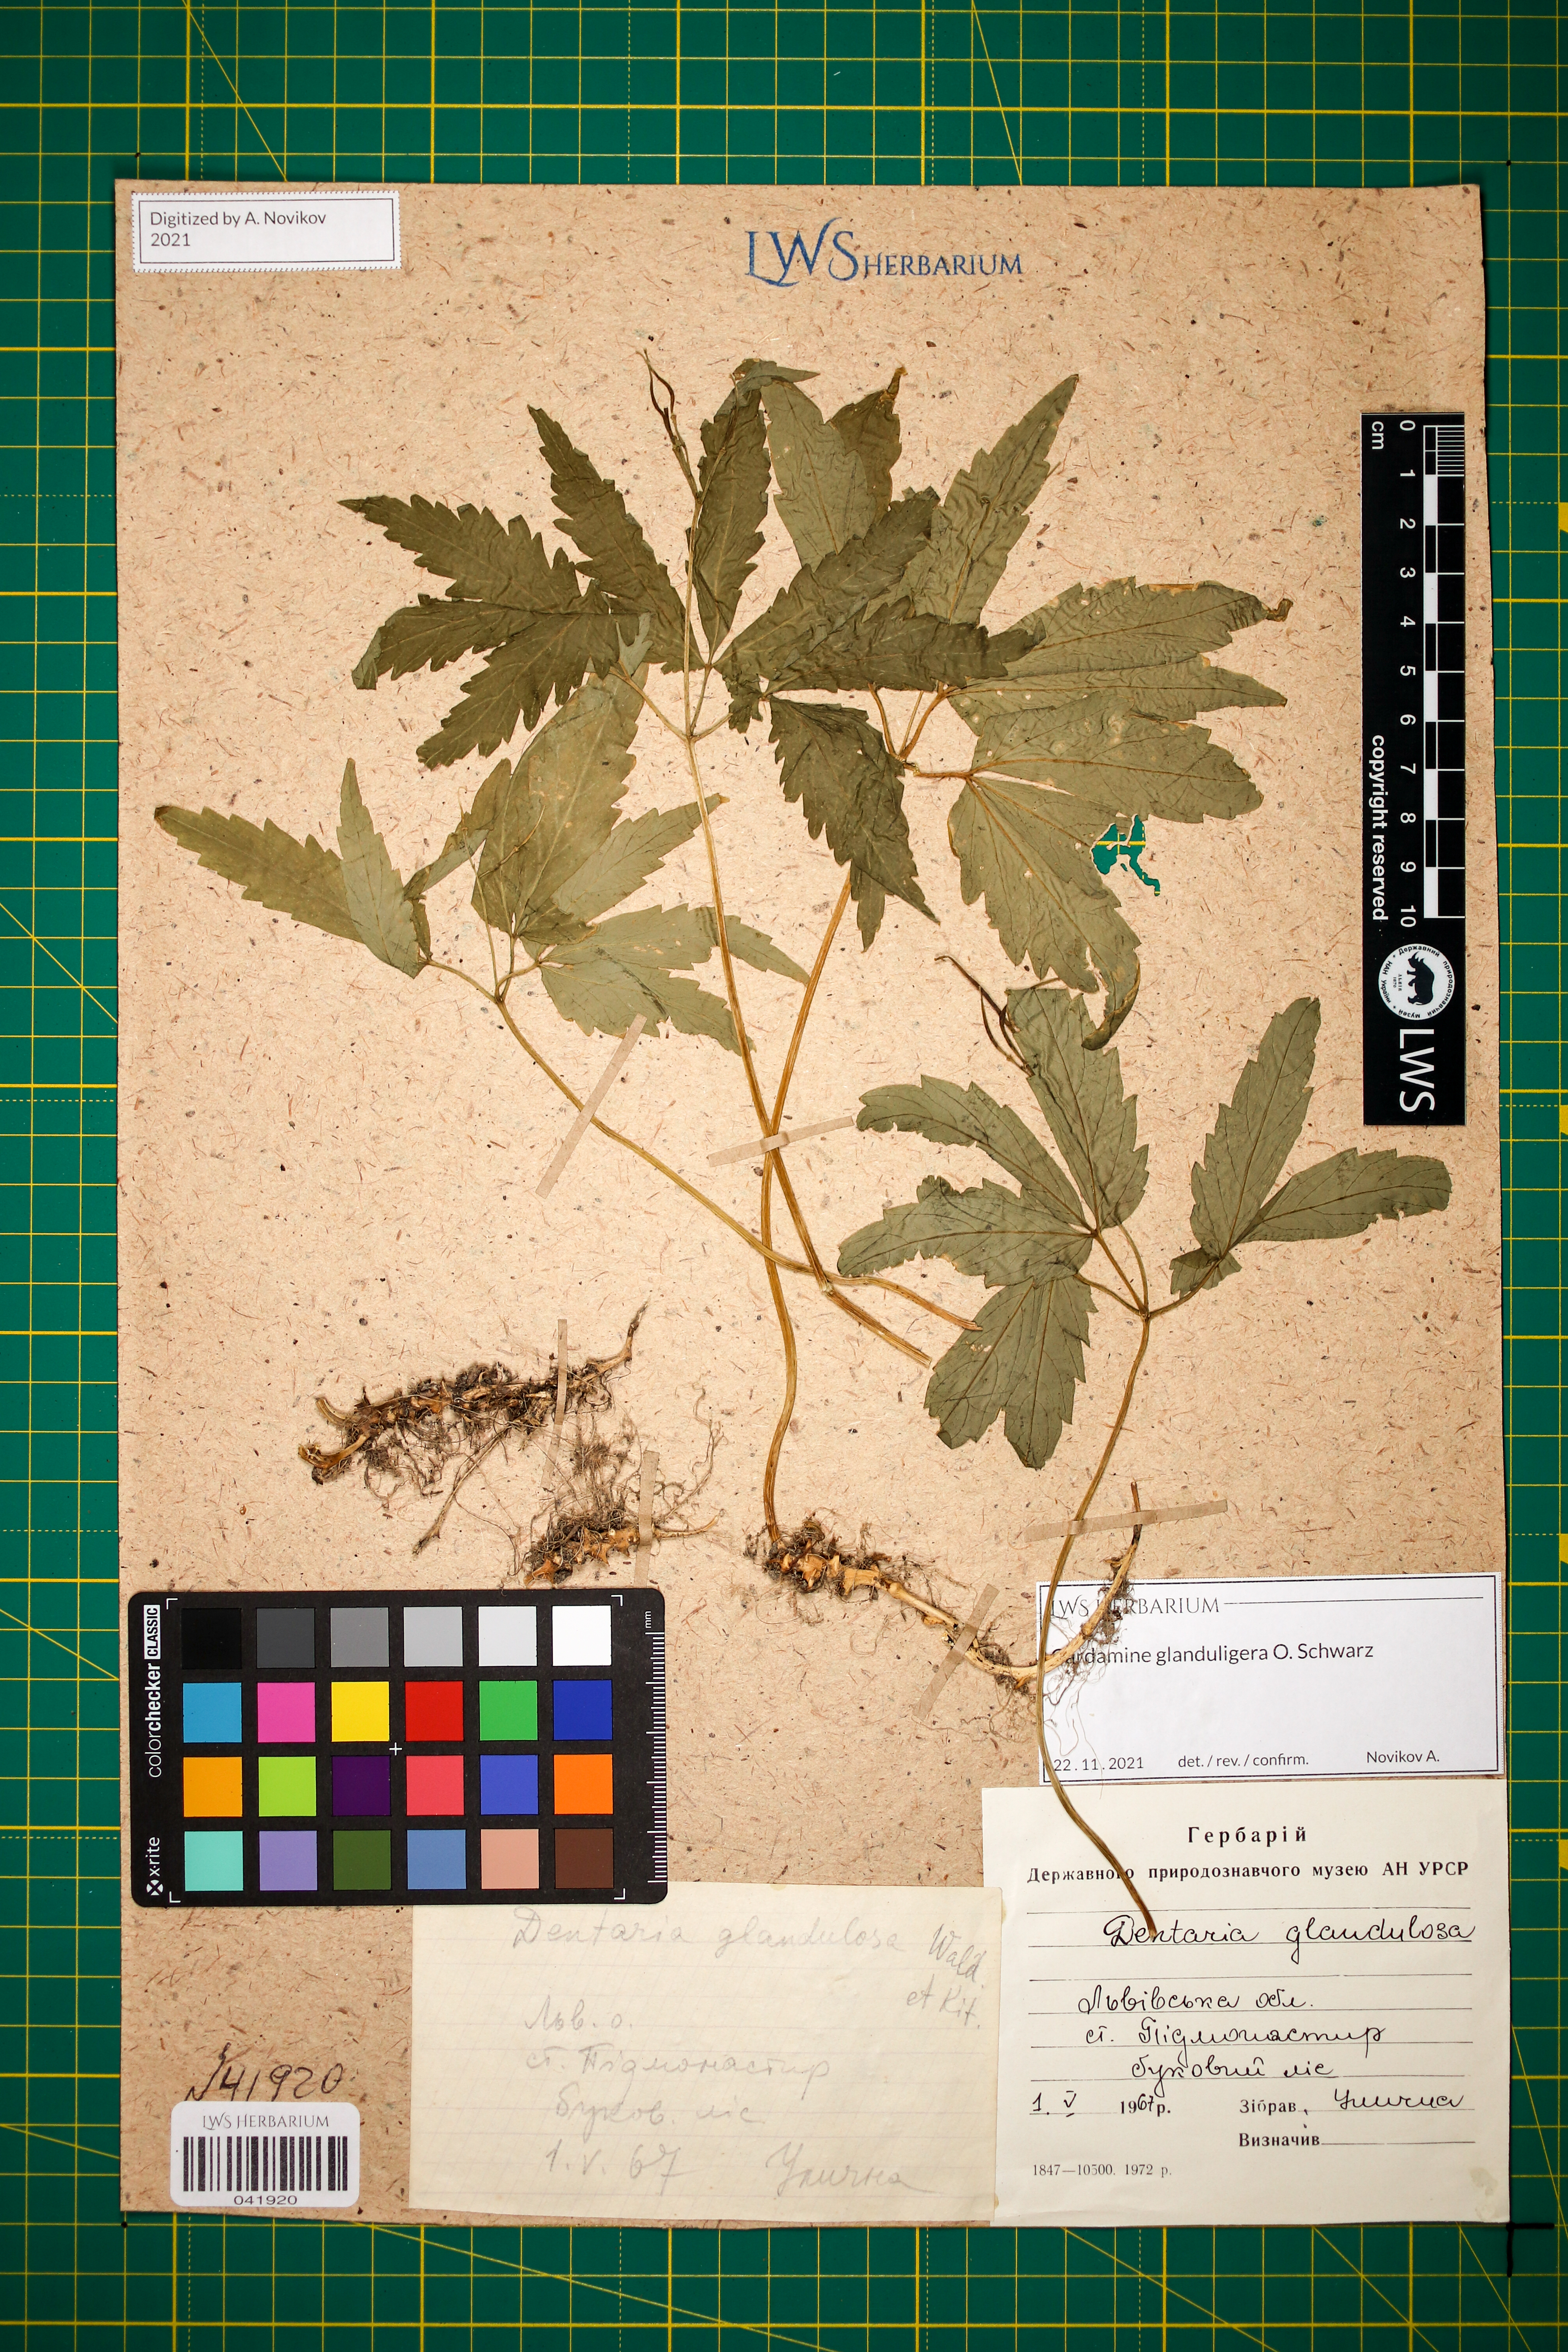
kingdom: Plantae
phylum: Tracheophyta
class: Magnoliopsida
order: Brassicales
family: Brassicaceae
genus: Cardamine
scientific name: Cardamine glanduligera
